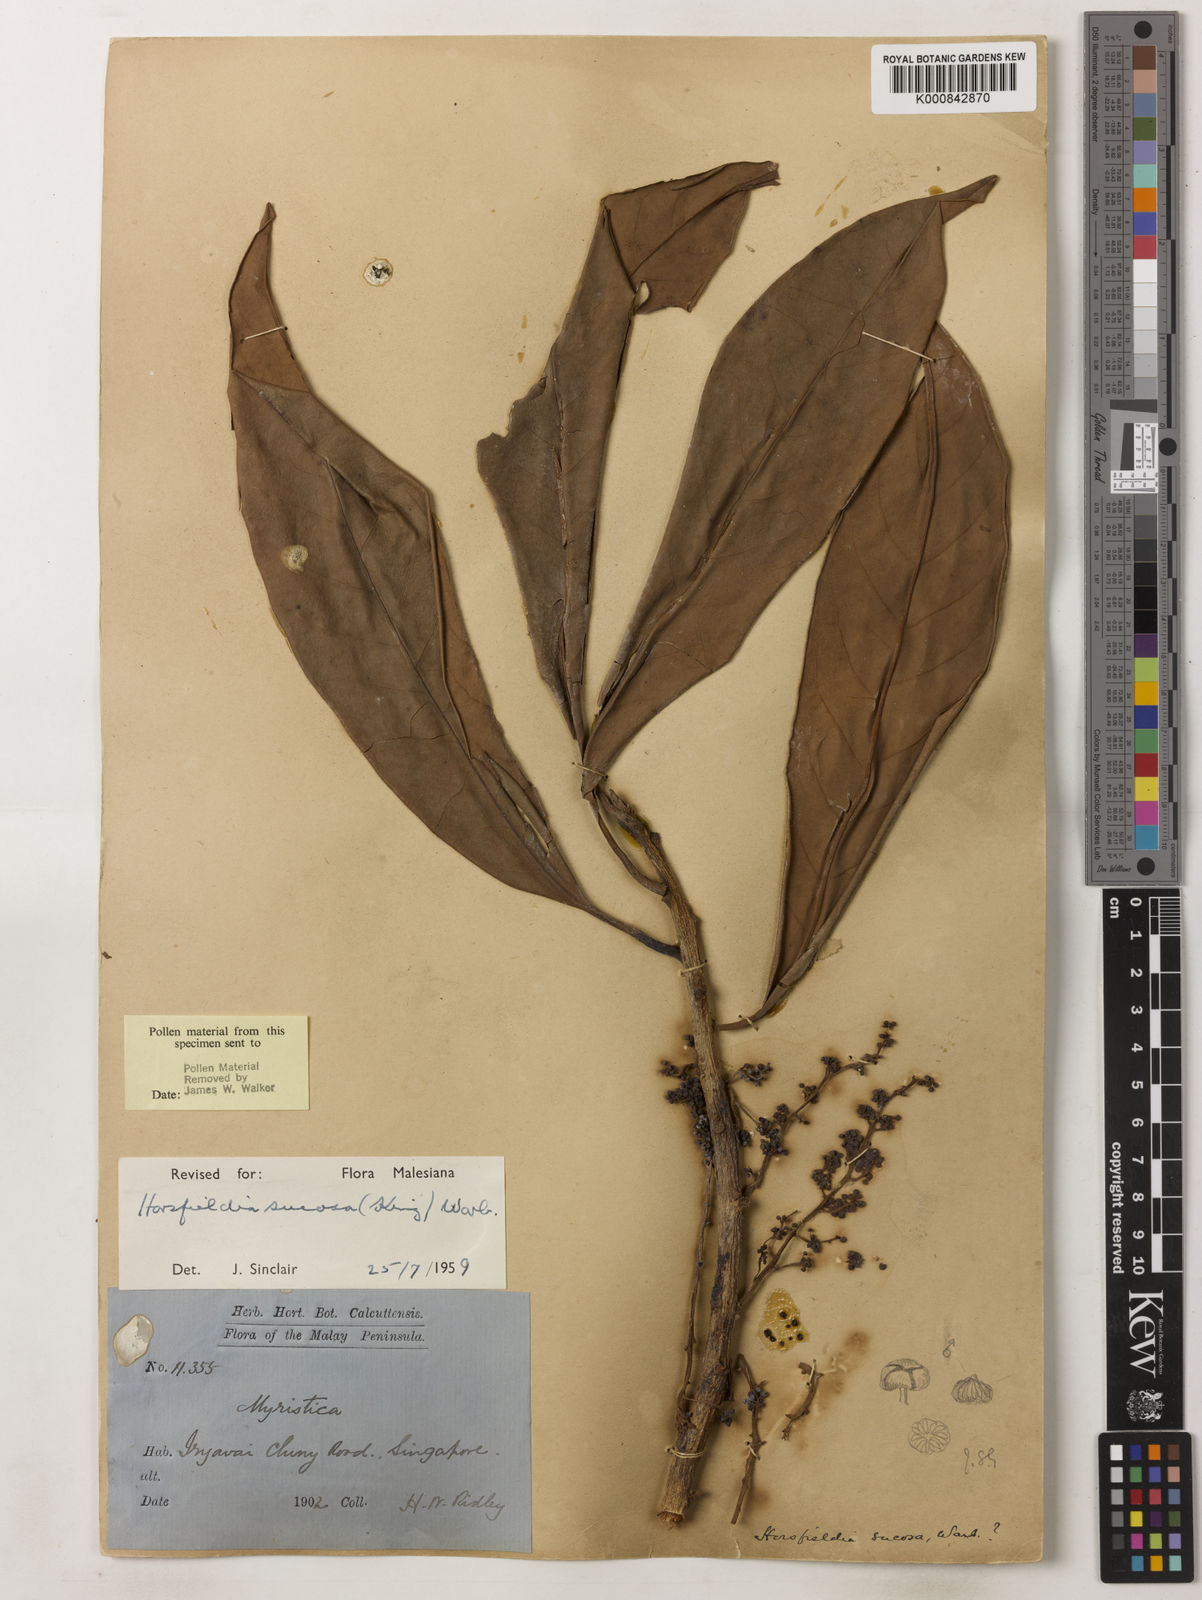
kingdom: Plantae
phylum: Tracheophyta
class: Magnoliopsida
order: Magnoliales
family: Myristicaceae
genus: Horsfieldia
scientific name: Horsfieldia sucosa
